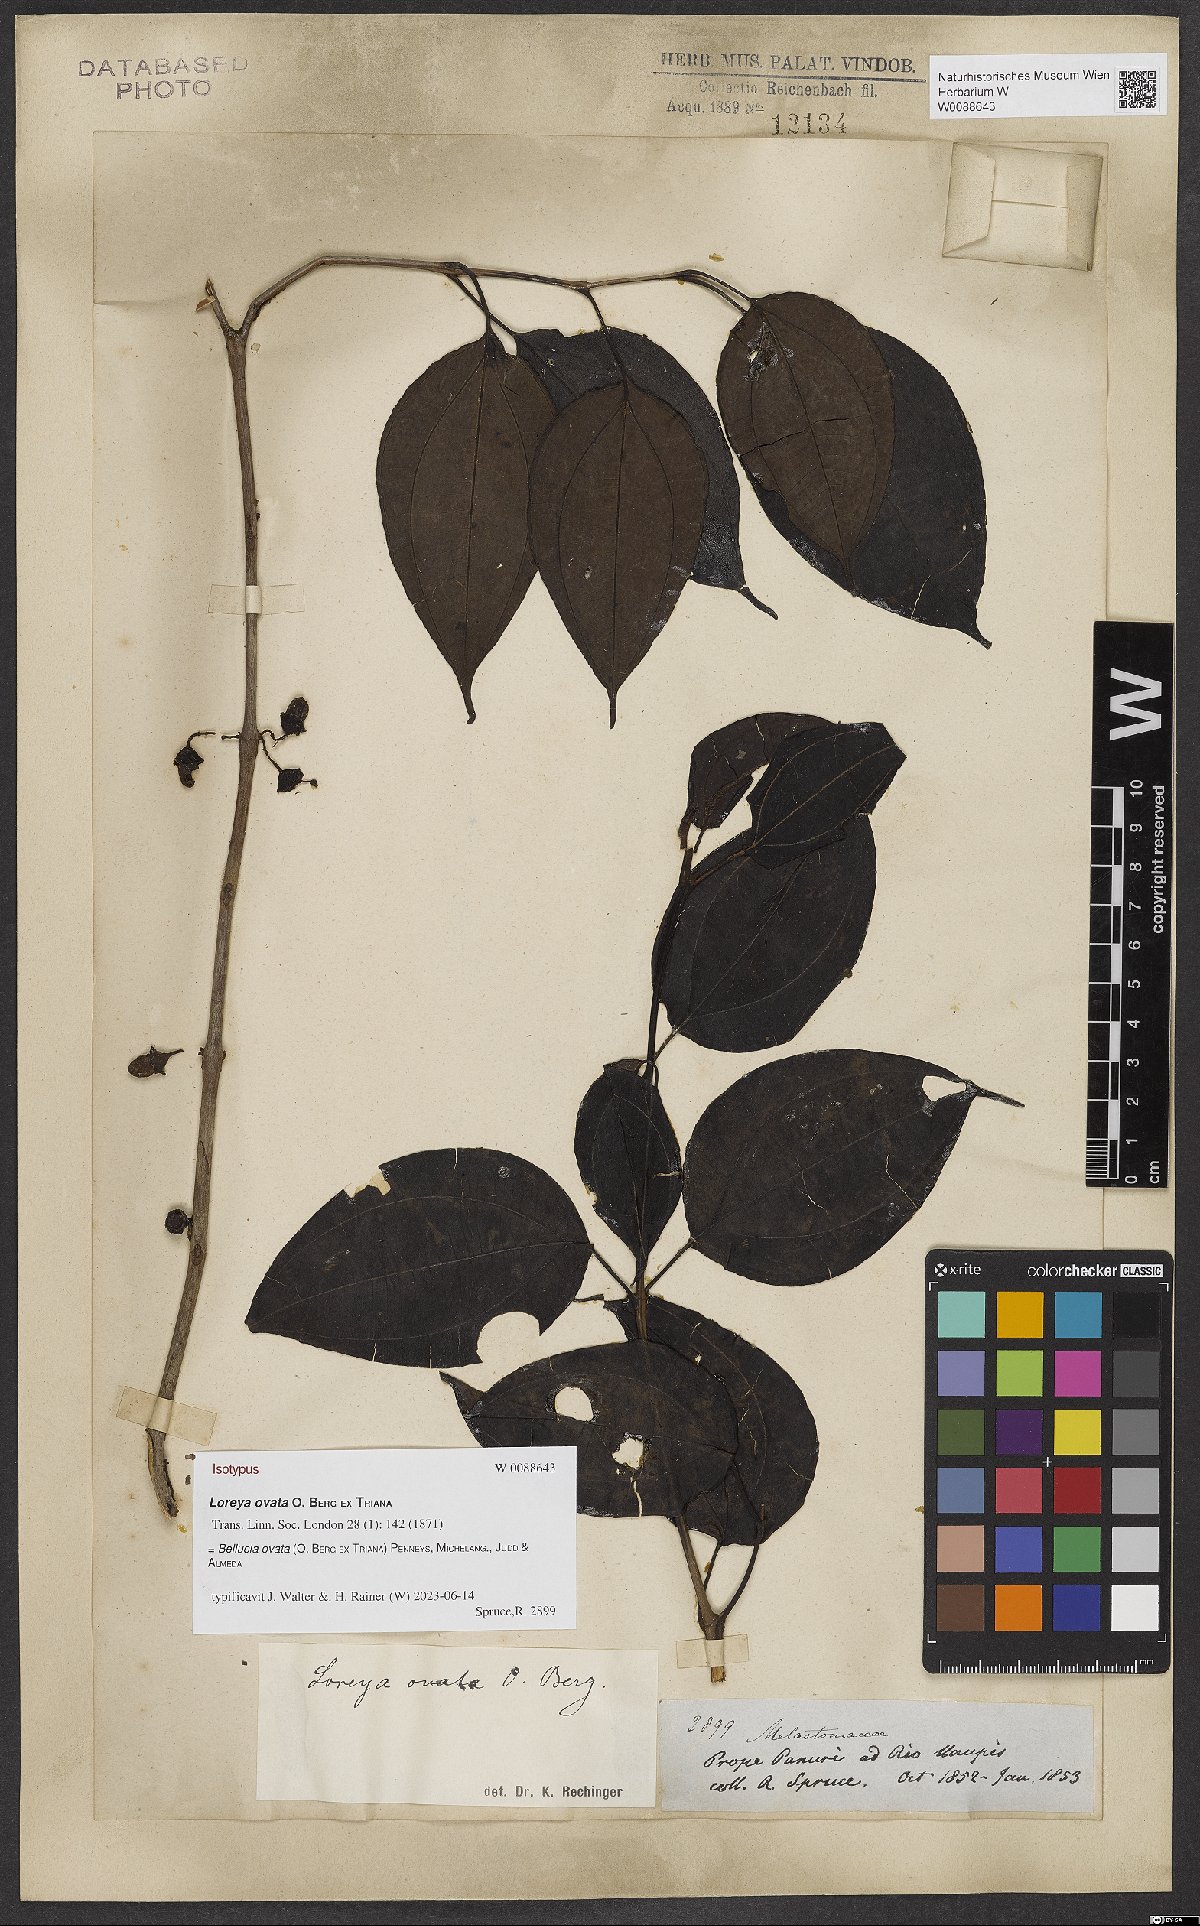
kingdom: Plantae
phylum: Tracheophyta
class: Magnoliopsida
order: Myrtales
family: Melastomataceae
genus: Bellucia
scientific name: Bellucia ovata
